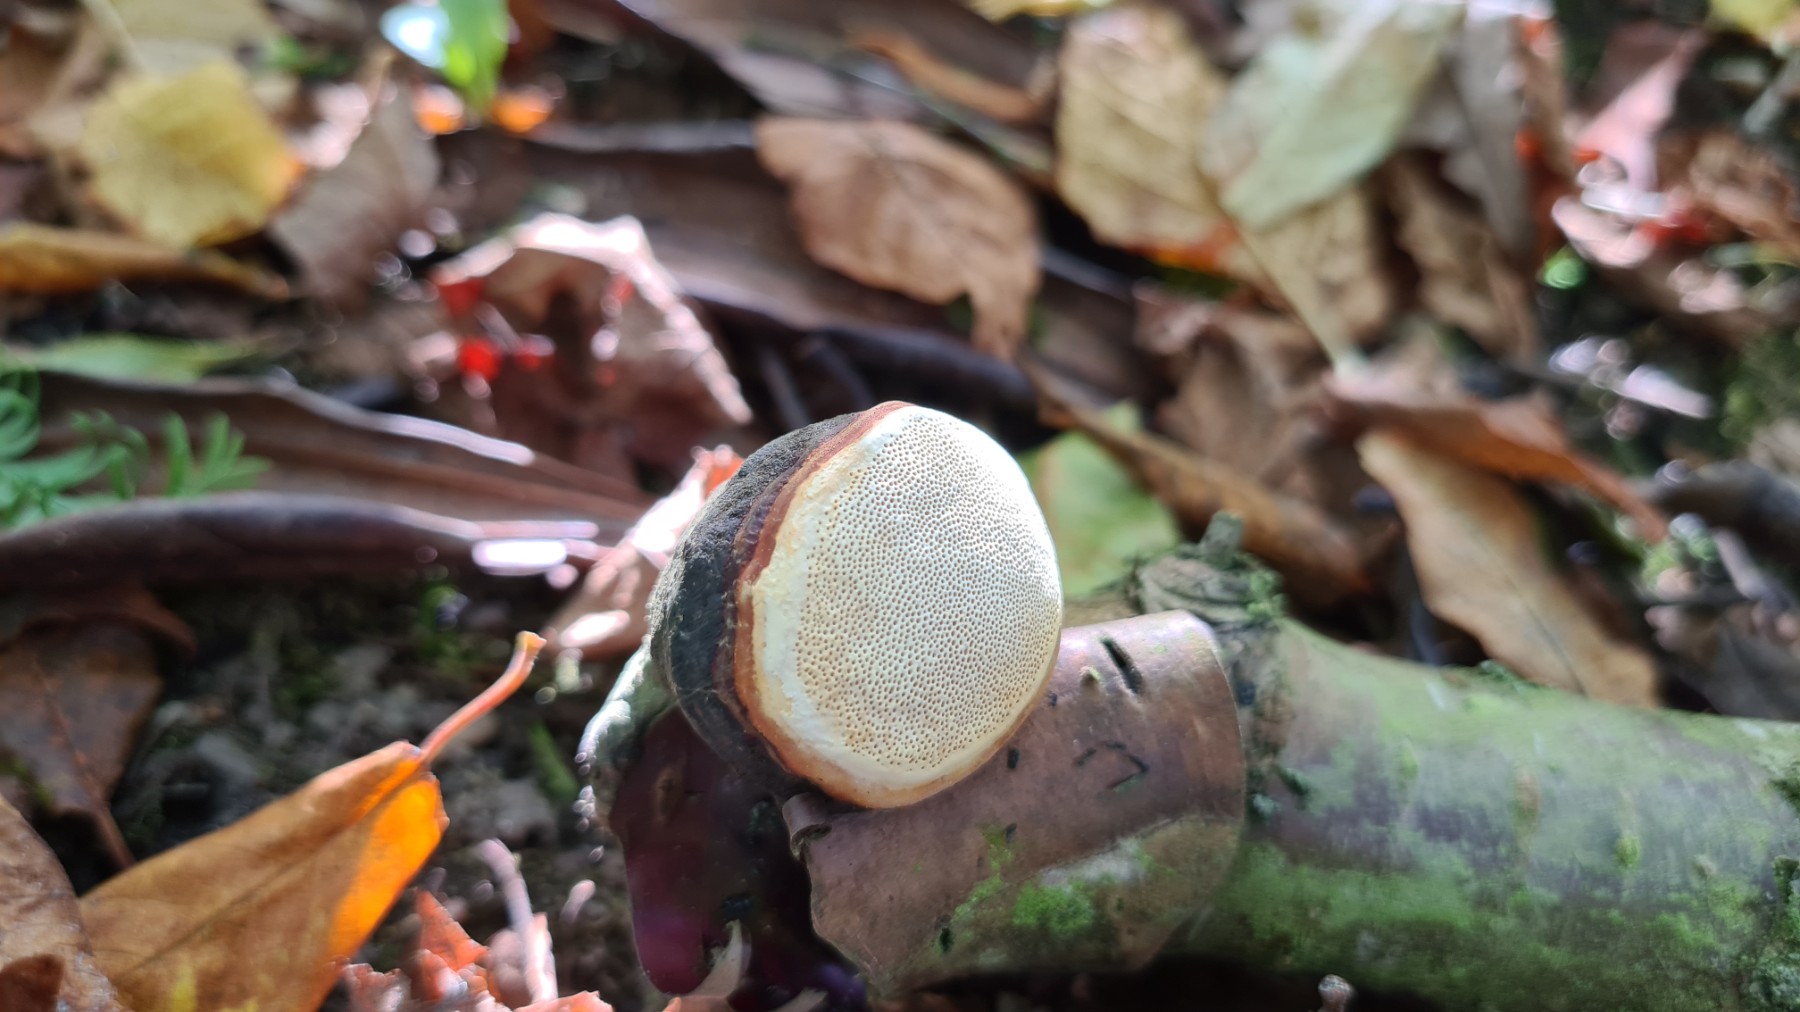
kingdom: Fungi
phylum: Basidiomycota
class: Agaricomycetes
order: Polyporales
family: Fomitopsidaceae
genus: Fomitopsis
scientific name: Fomitopsis pinicola
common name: randbæltet hovporesvamp
